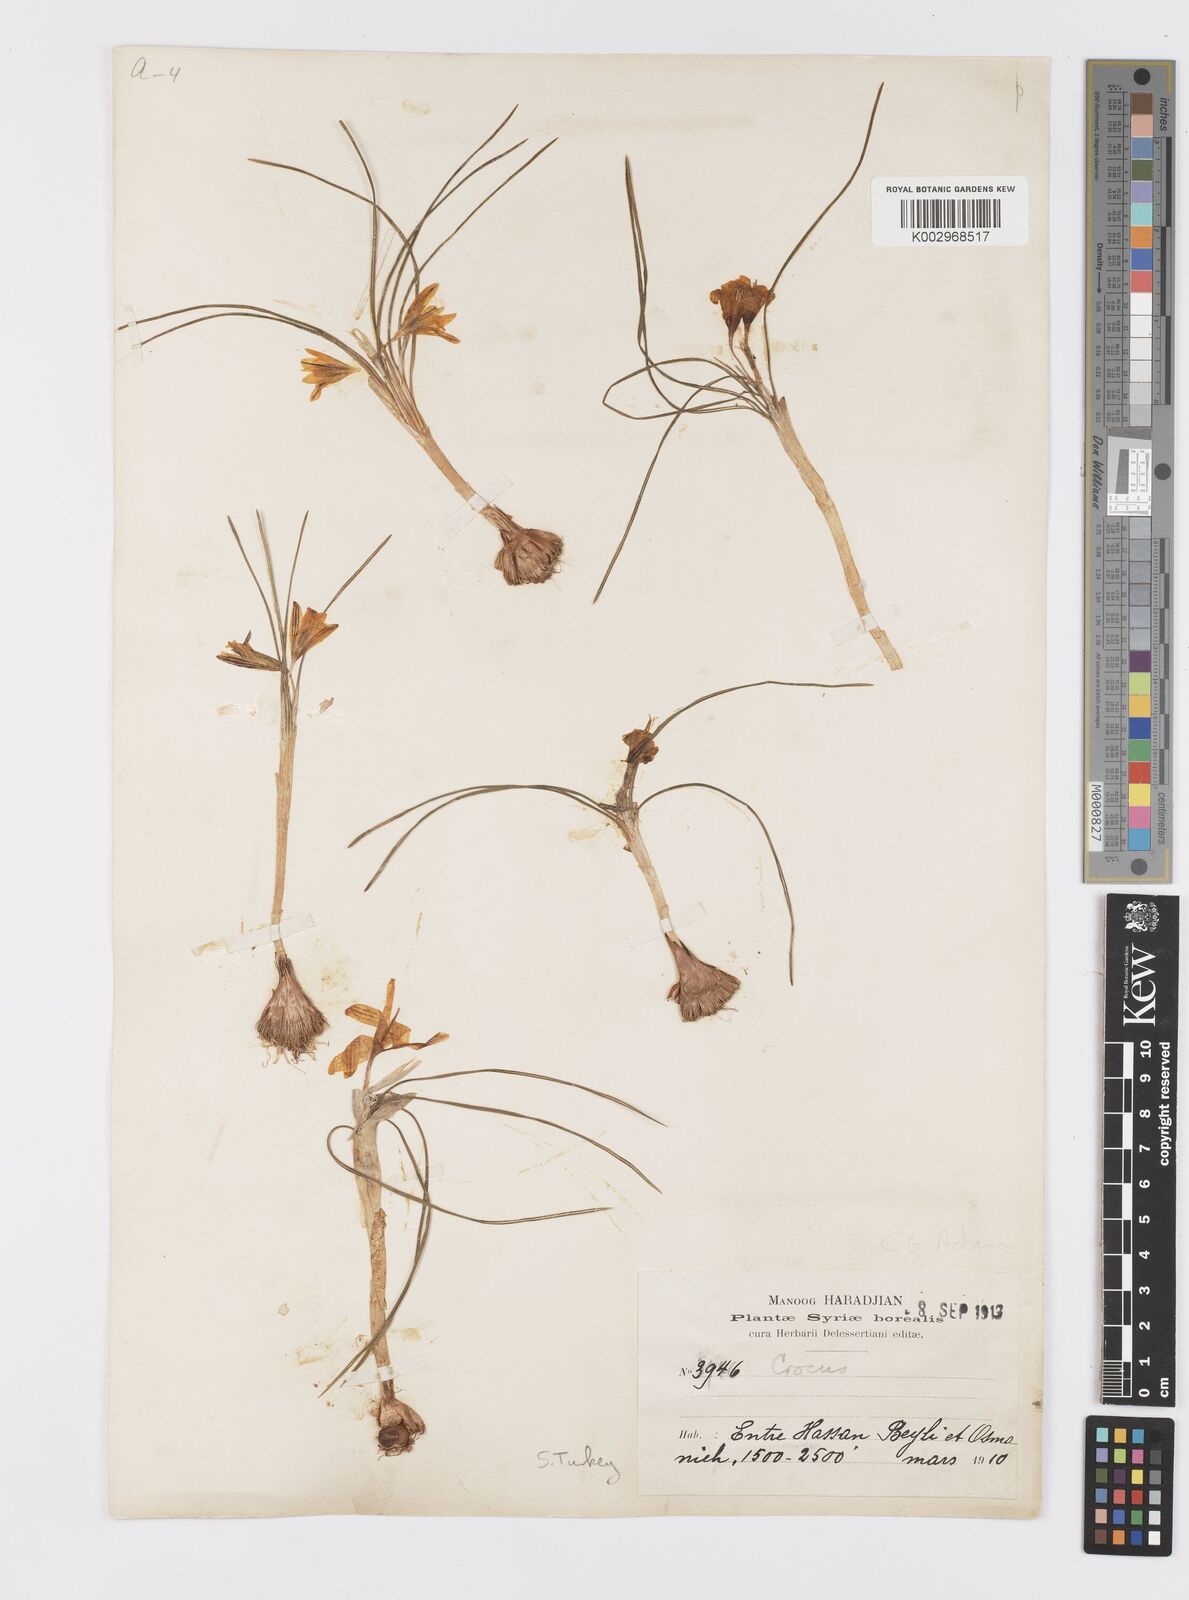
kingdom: Plantae
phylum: Tracheophyta
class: Liliopsida
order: Asparagales
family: Iridaceae
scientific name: Iridaceae
